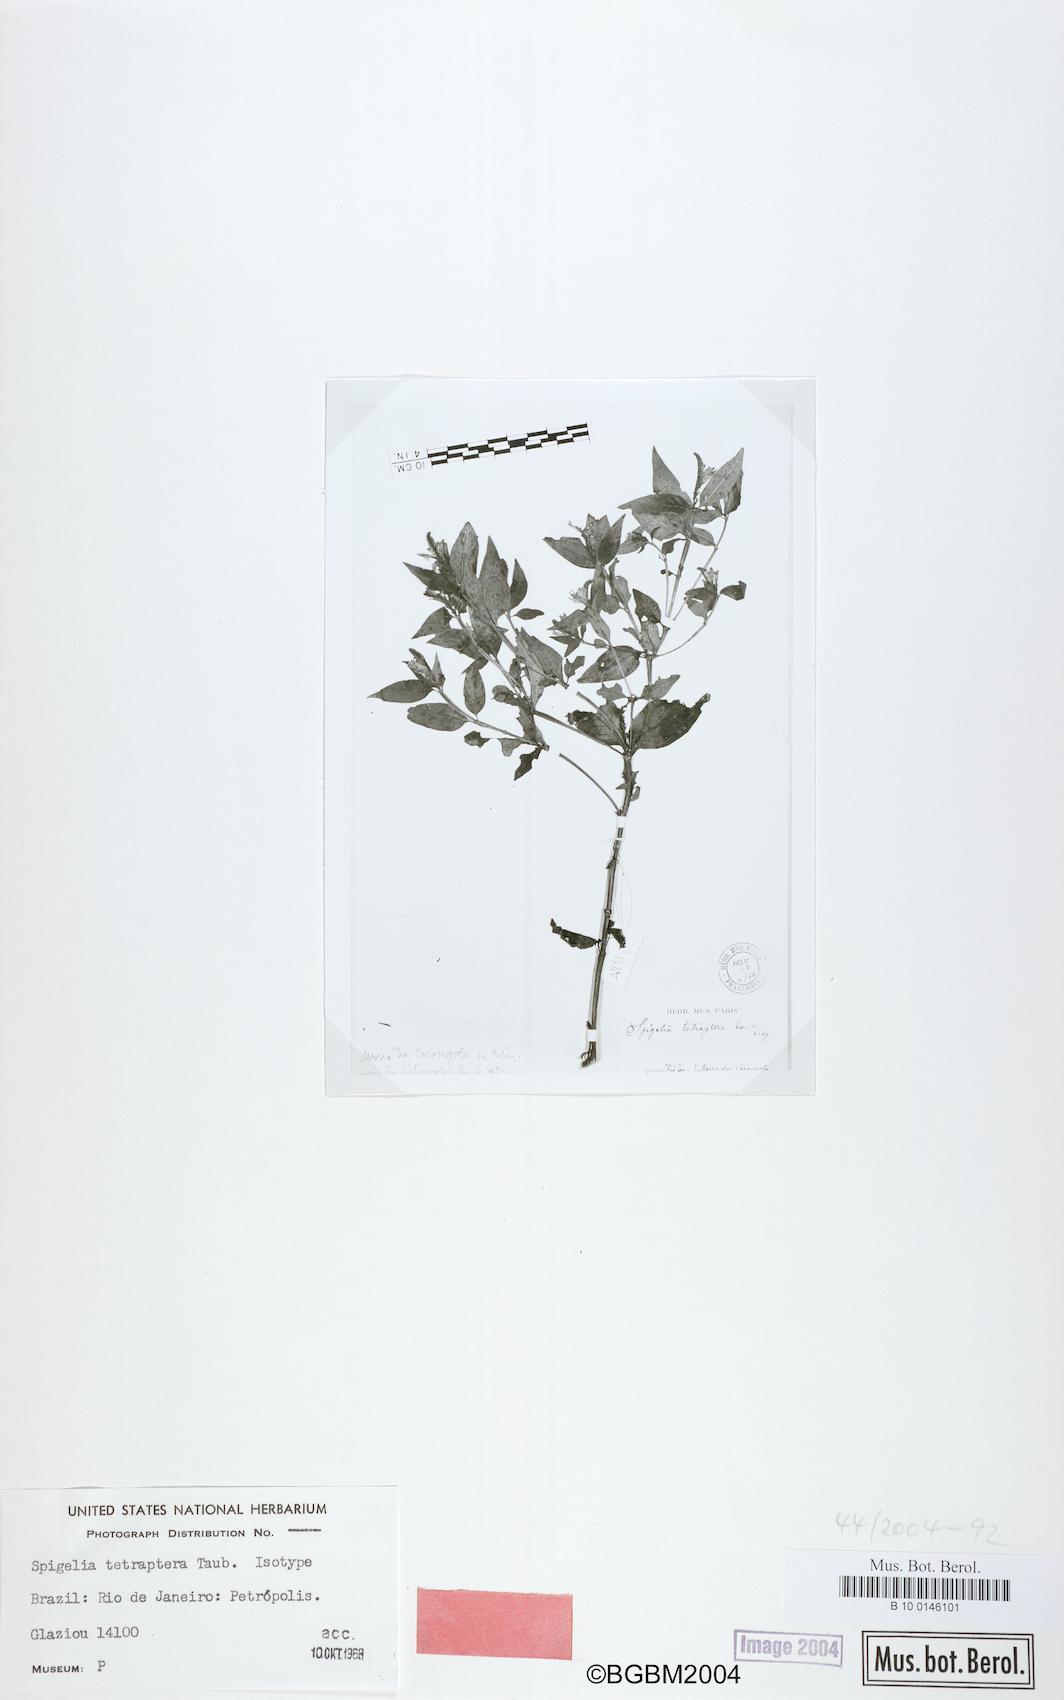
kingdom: Plantae
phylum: Tracheophyta
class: Magnoliopsida
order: Gentianales
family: Loganiaceae
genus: Spigelia
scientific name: Spigelia tetraptera
